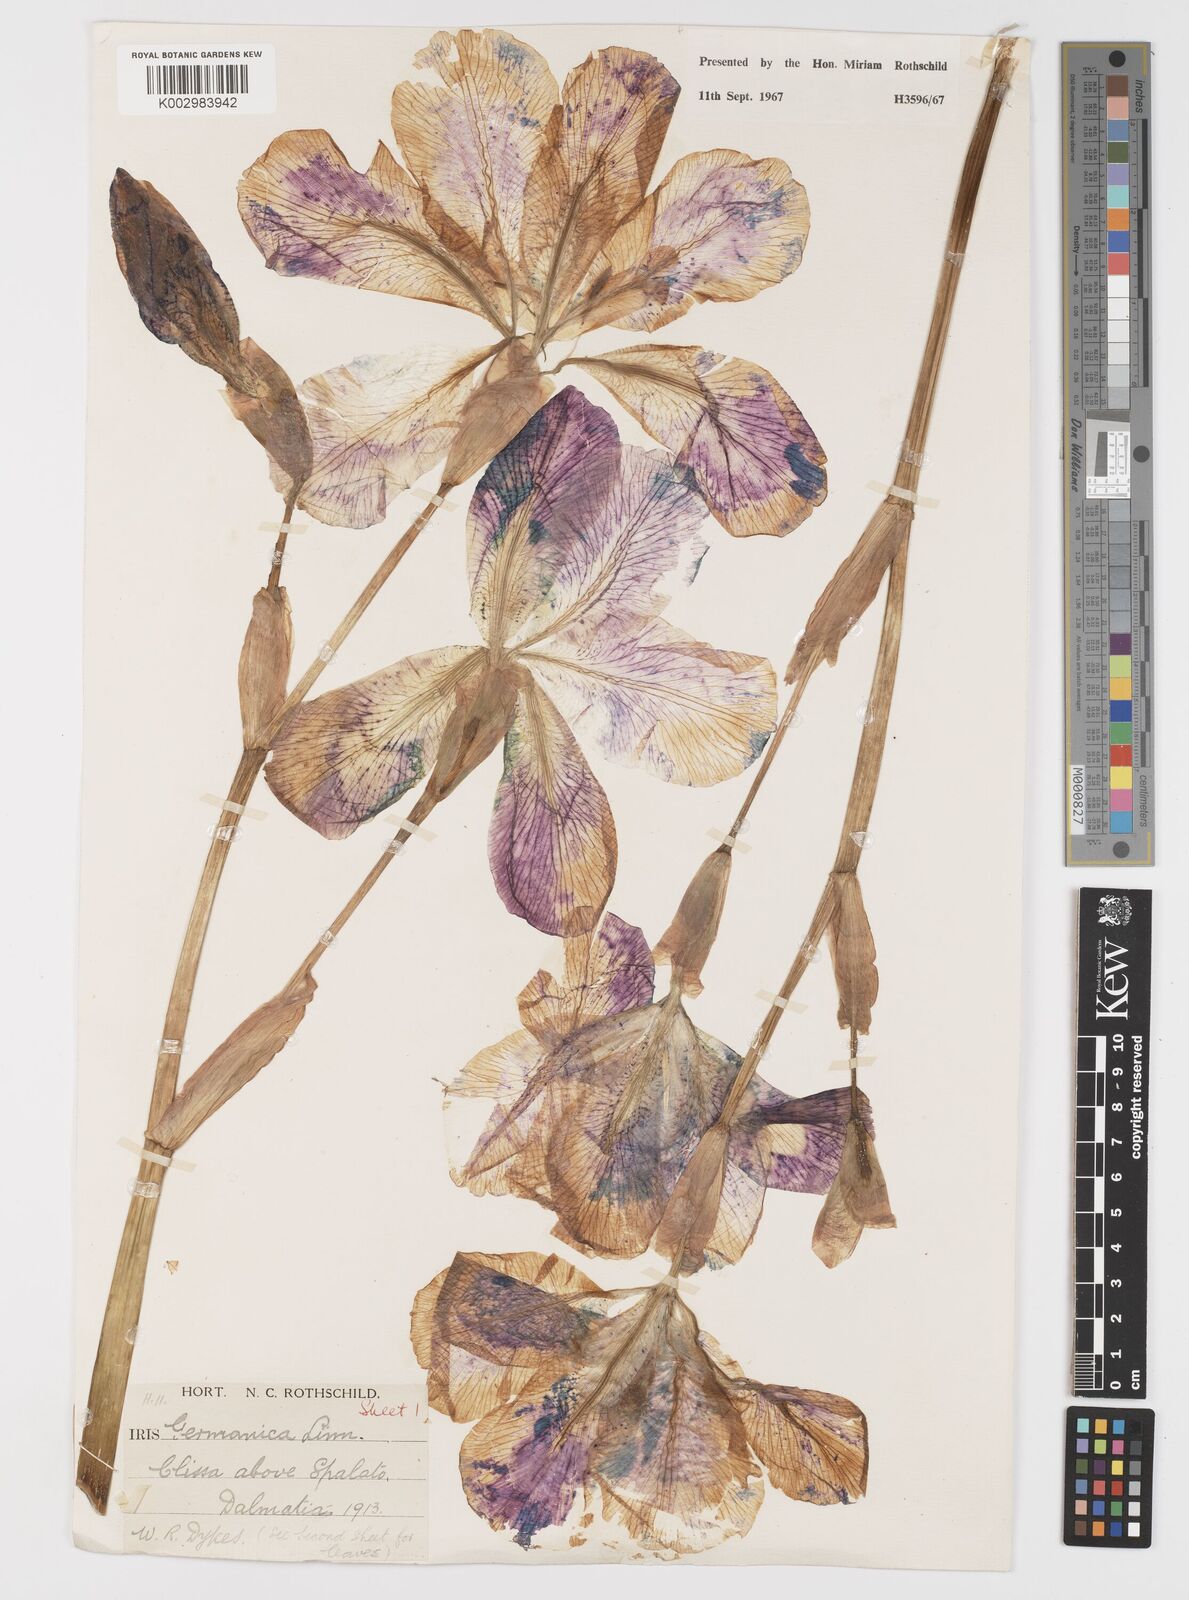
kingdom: Plantae
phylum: Tracheophyta
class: Liliopsida
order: Asparagales
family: Iridaceae
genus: Iris
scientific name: Iris germanica
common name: German iris
